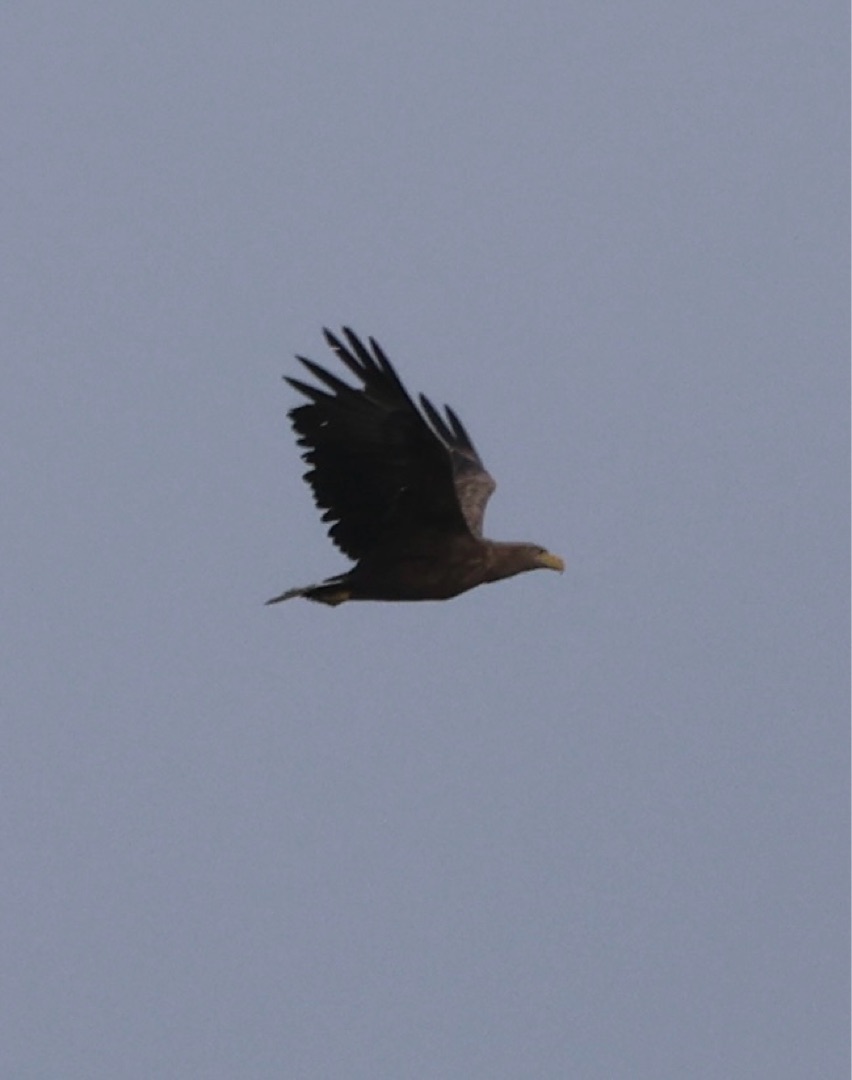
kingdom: Animalia
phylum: Chordata
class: Aves
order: Accipitriformes
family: Accipitridae
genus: Haliaeetus
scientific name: Haliaeetus albicilla
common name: Havørn
